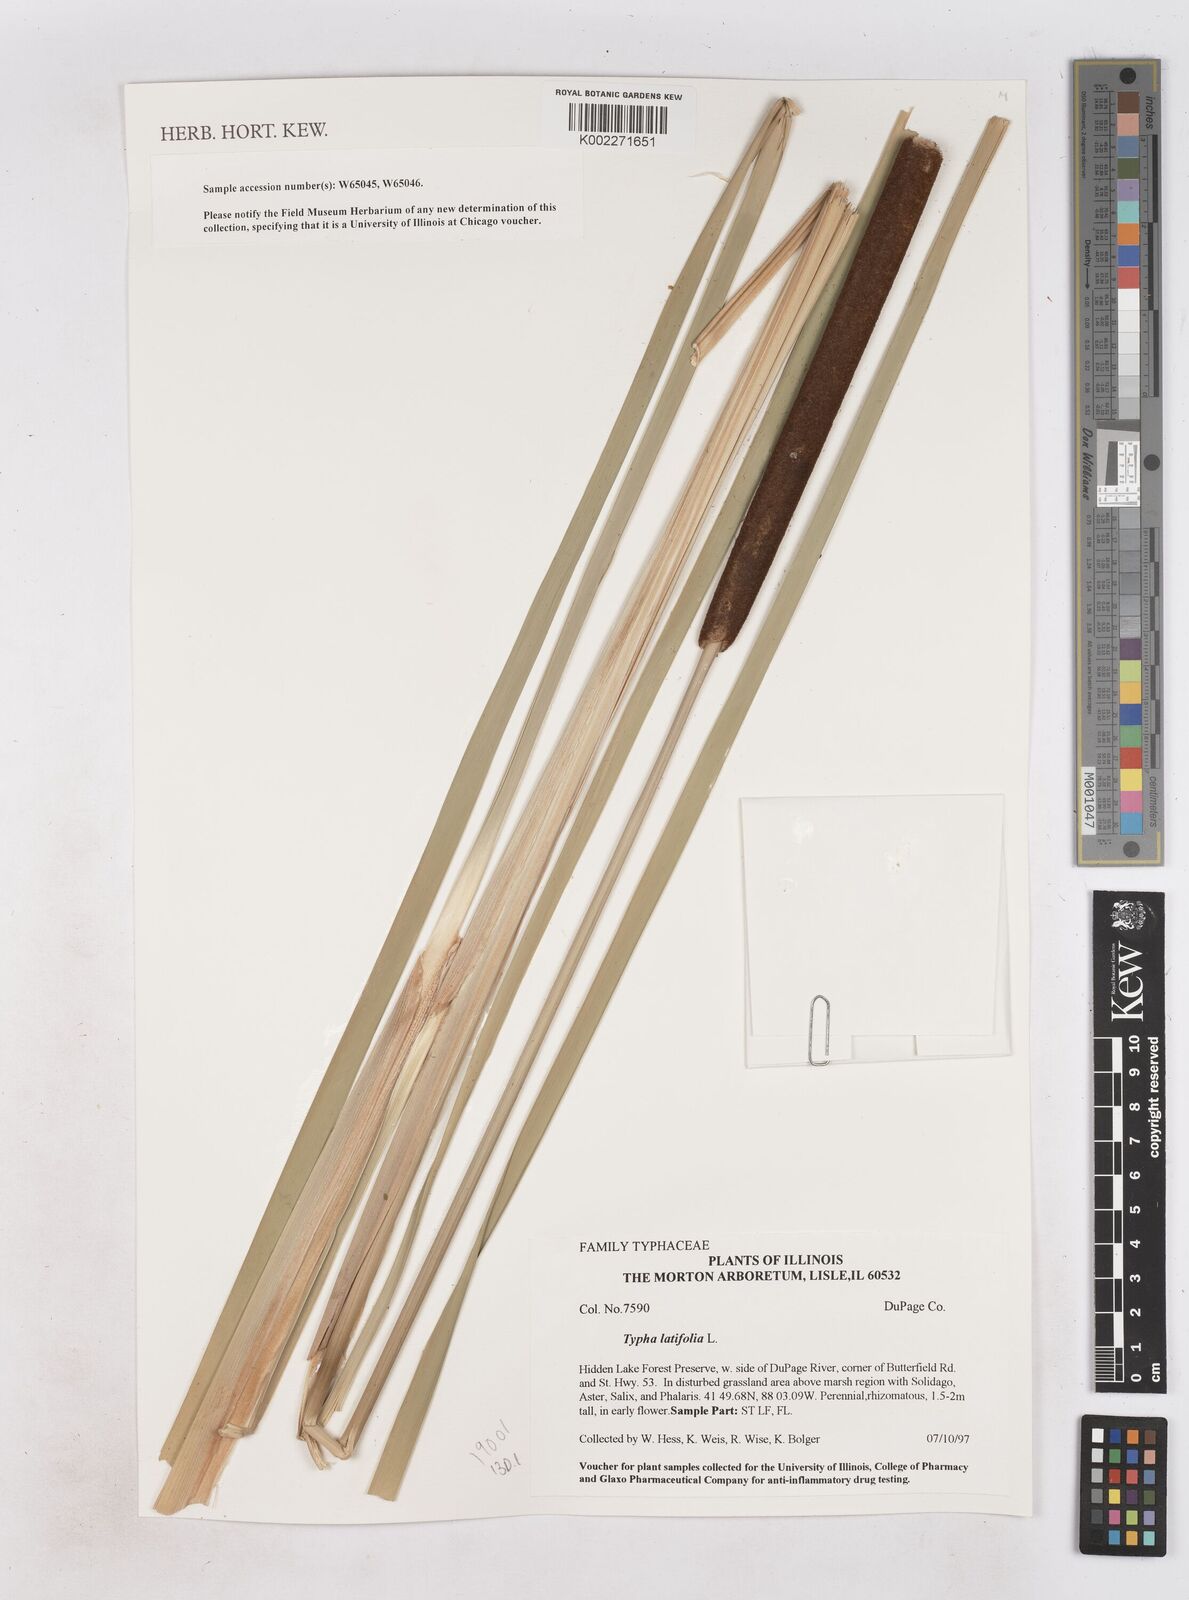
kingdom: Plantae
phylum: Tracheophyta
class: Liliopsida
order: Poales
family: Typhaceae
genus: Typha
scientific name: Typha latifolia
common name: Broadleaf cattail
